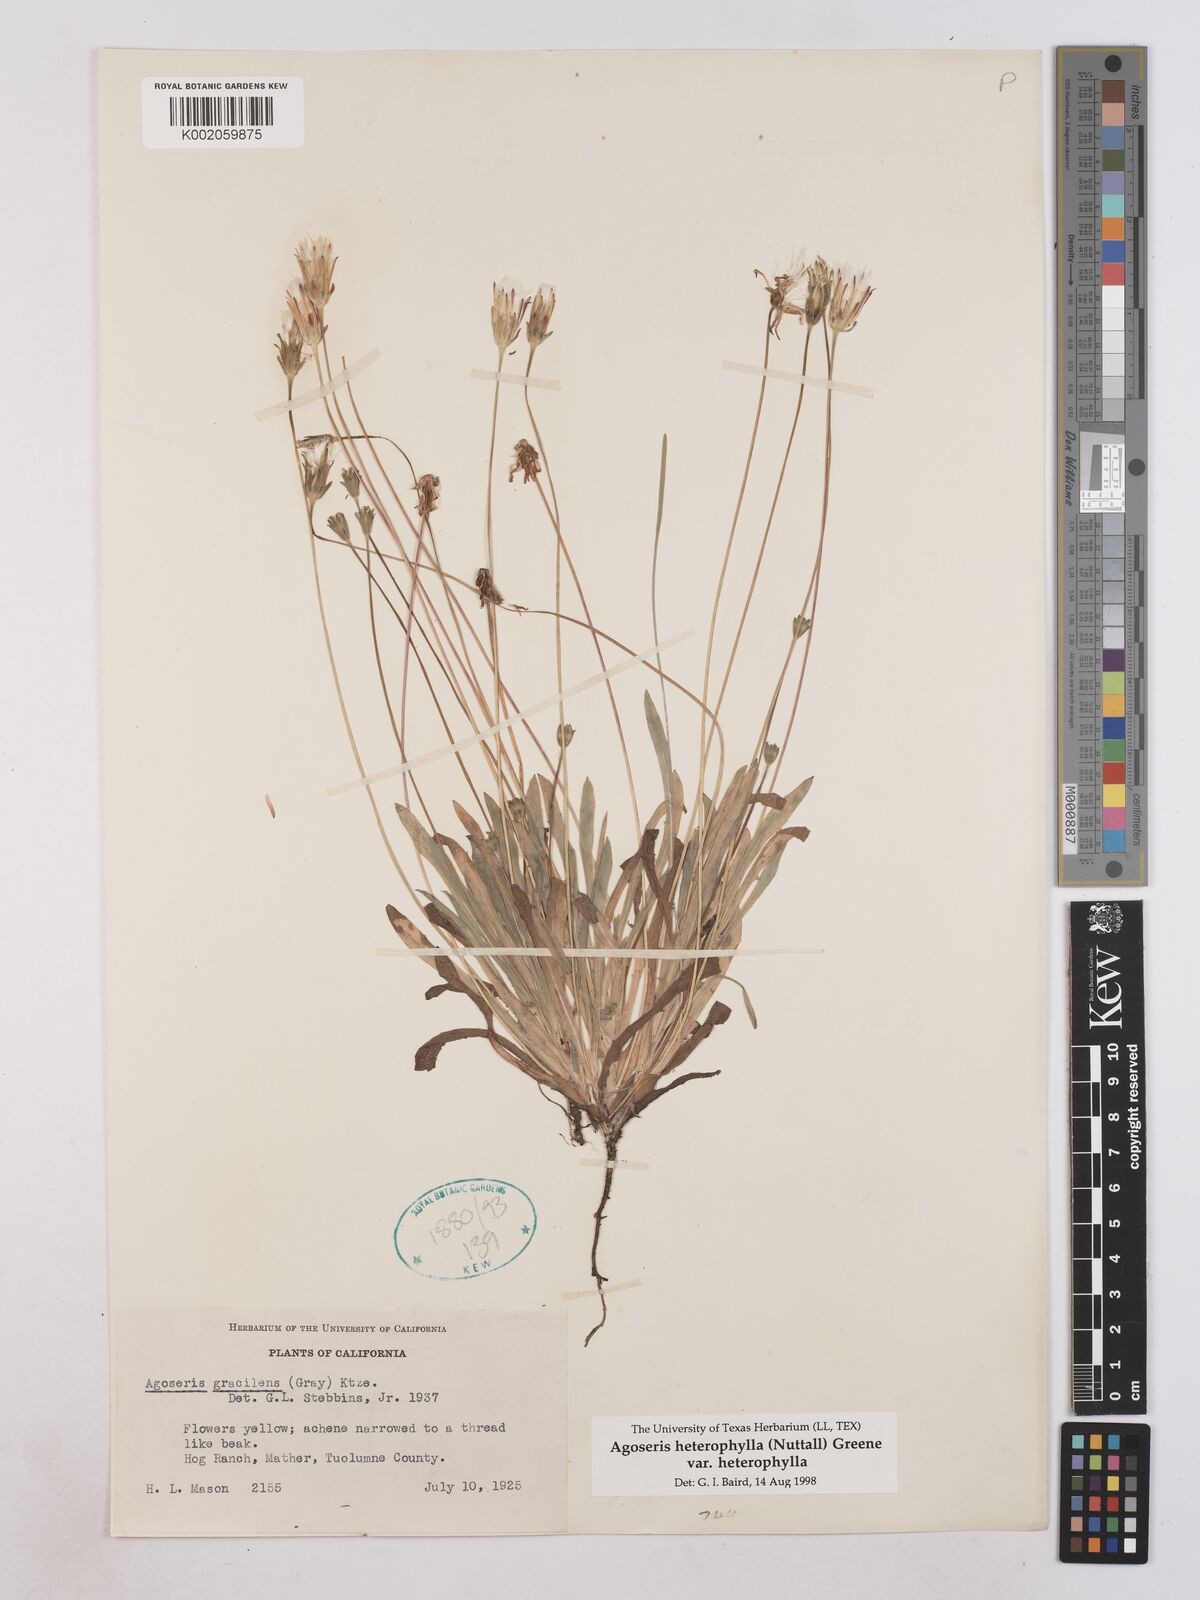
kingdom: Plantae
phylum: Tracheophyta
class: Magnoliopsida
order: Asterales
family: Asteraceae
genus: Agoseris
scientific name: Agoseris heterophylla
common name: Annual agoseris
